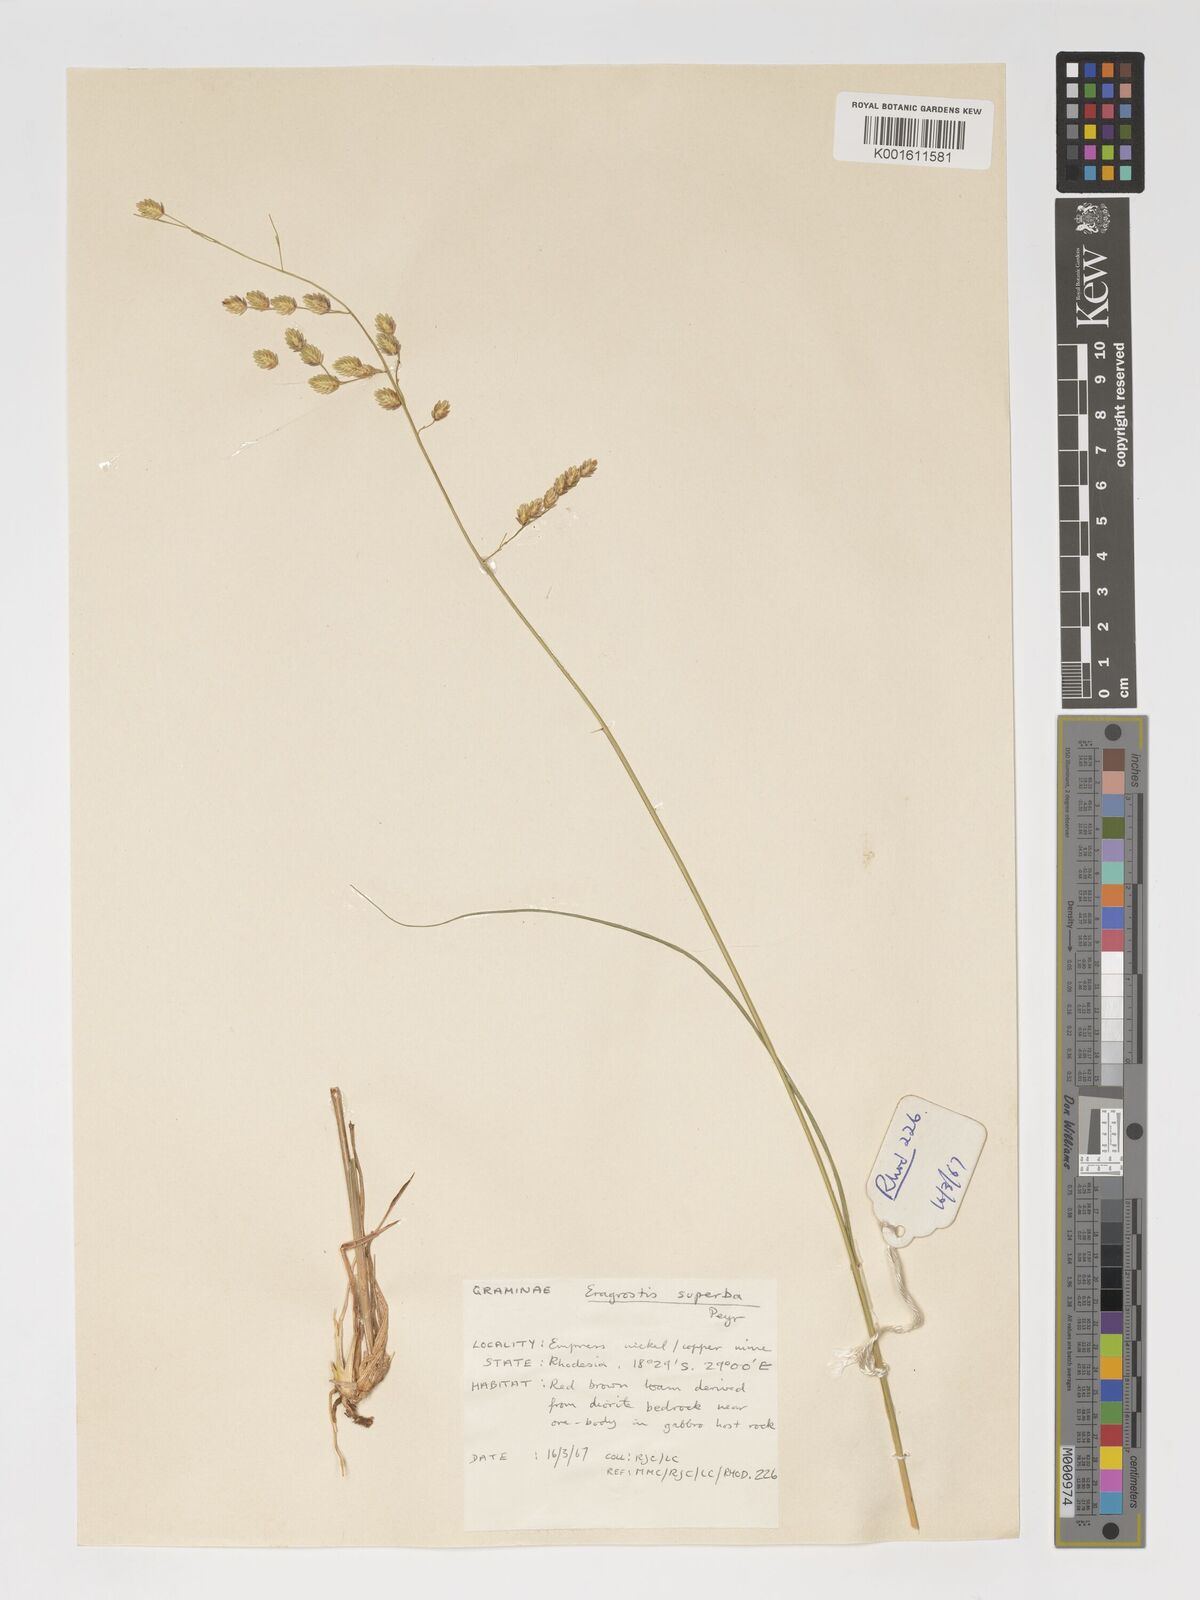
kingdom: Plantae
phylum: Tracheophyta
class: Liliopsida
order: Poales
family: Poaceae
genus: Eragrostis
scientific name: Eragrostis superba
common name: Wilman lovegrass
